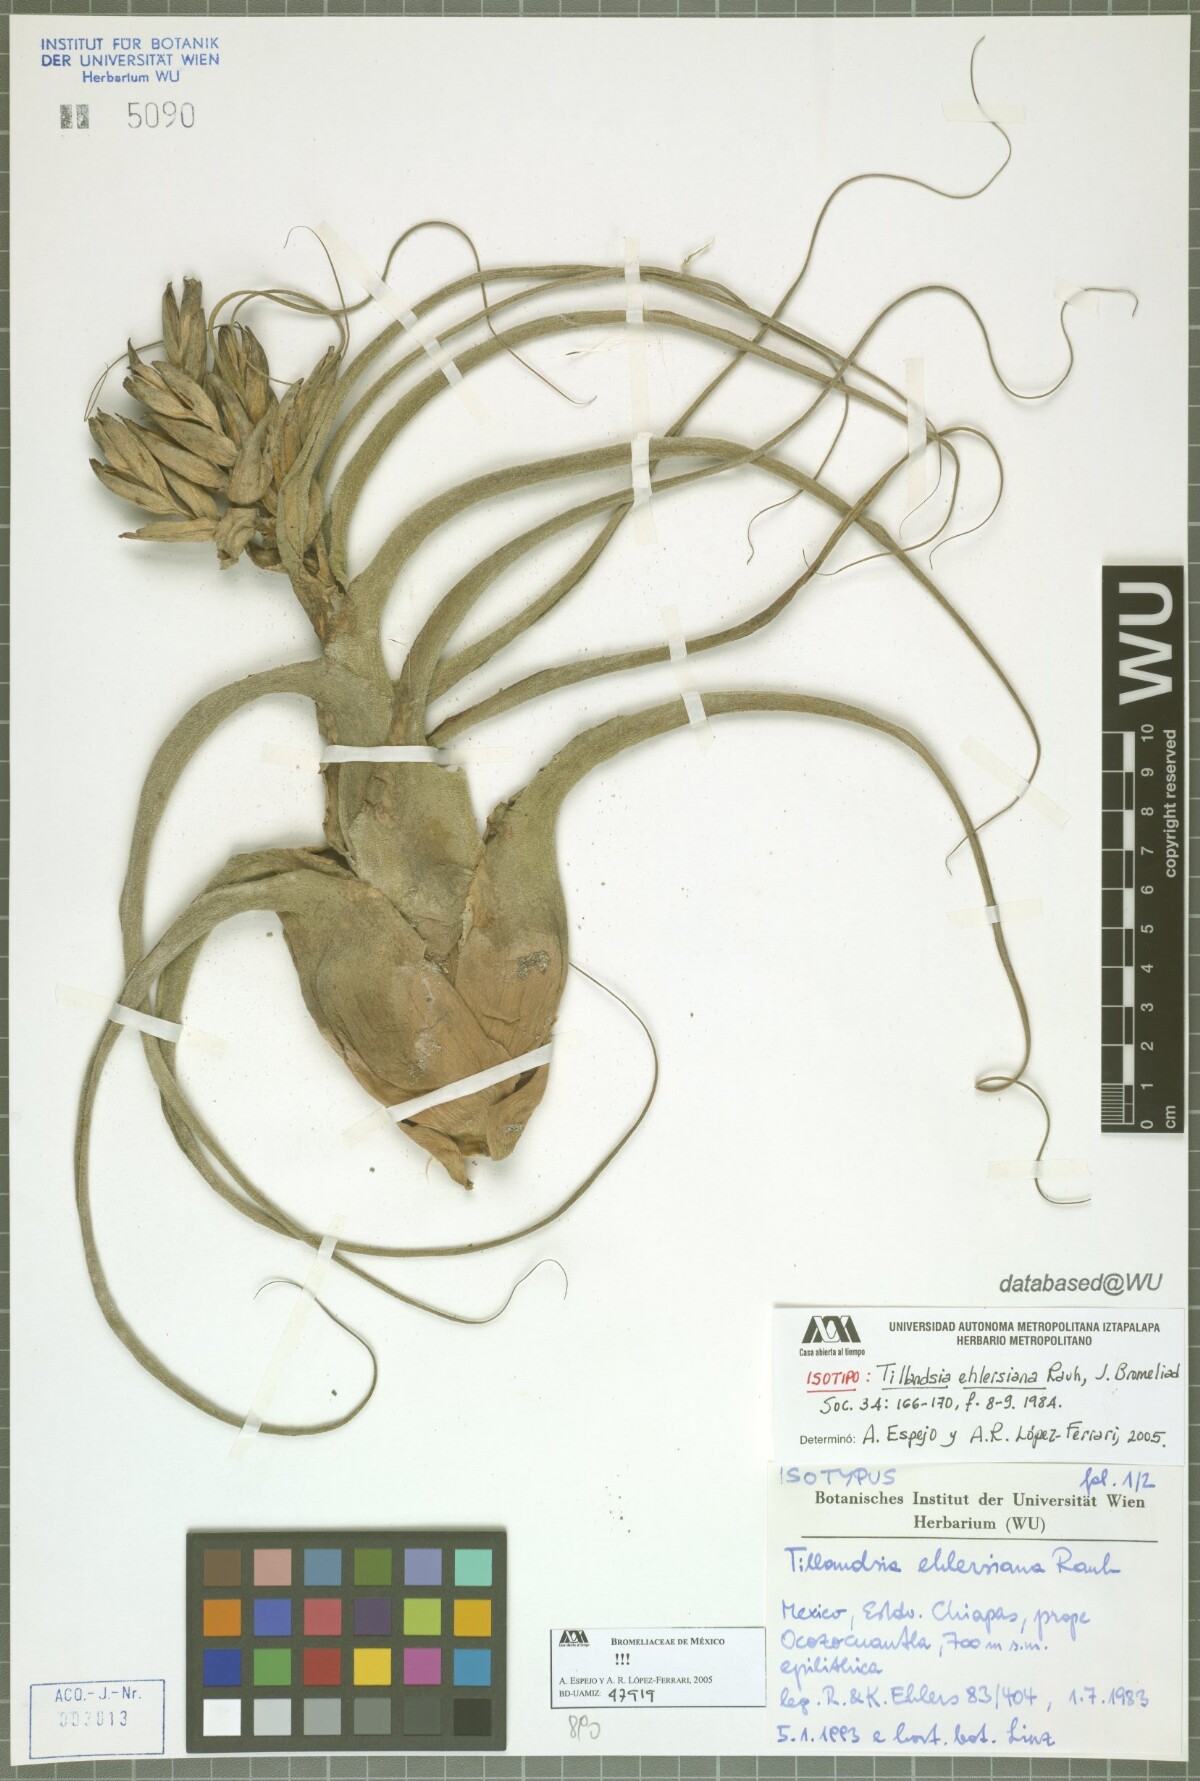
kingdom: Plantae
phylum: Tracheophyta
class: Liliopsida
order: Poales
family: Bromeliaceae
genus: Tillandsia
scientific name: Tillandsia seleriana
